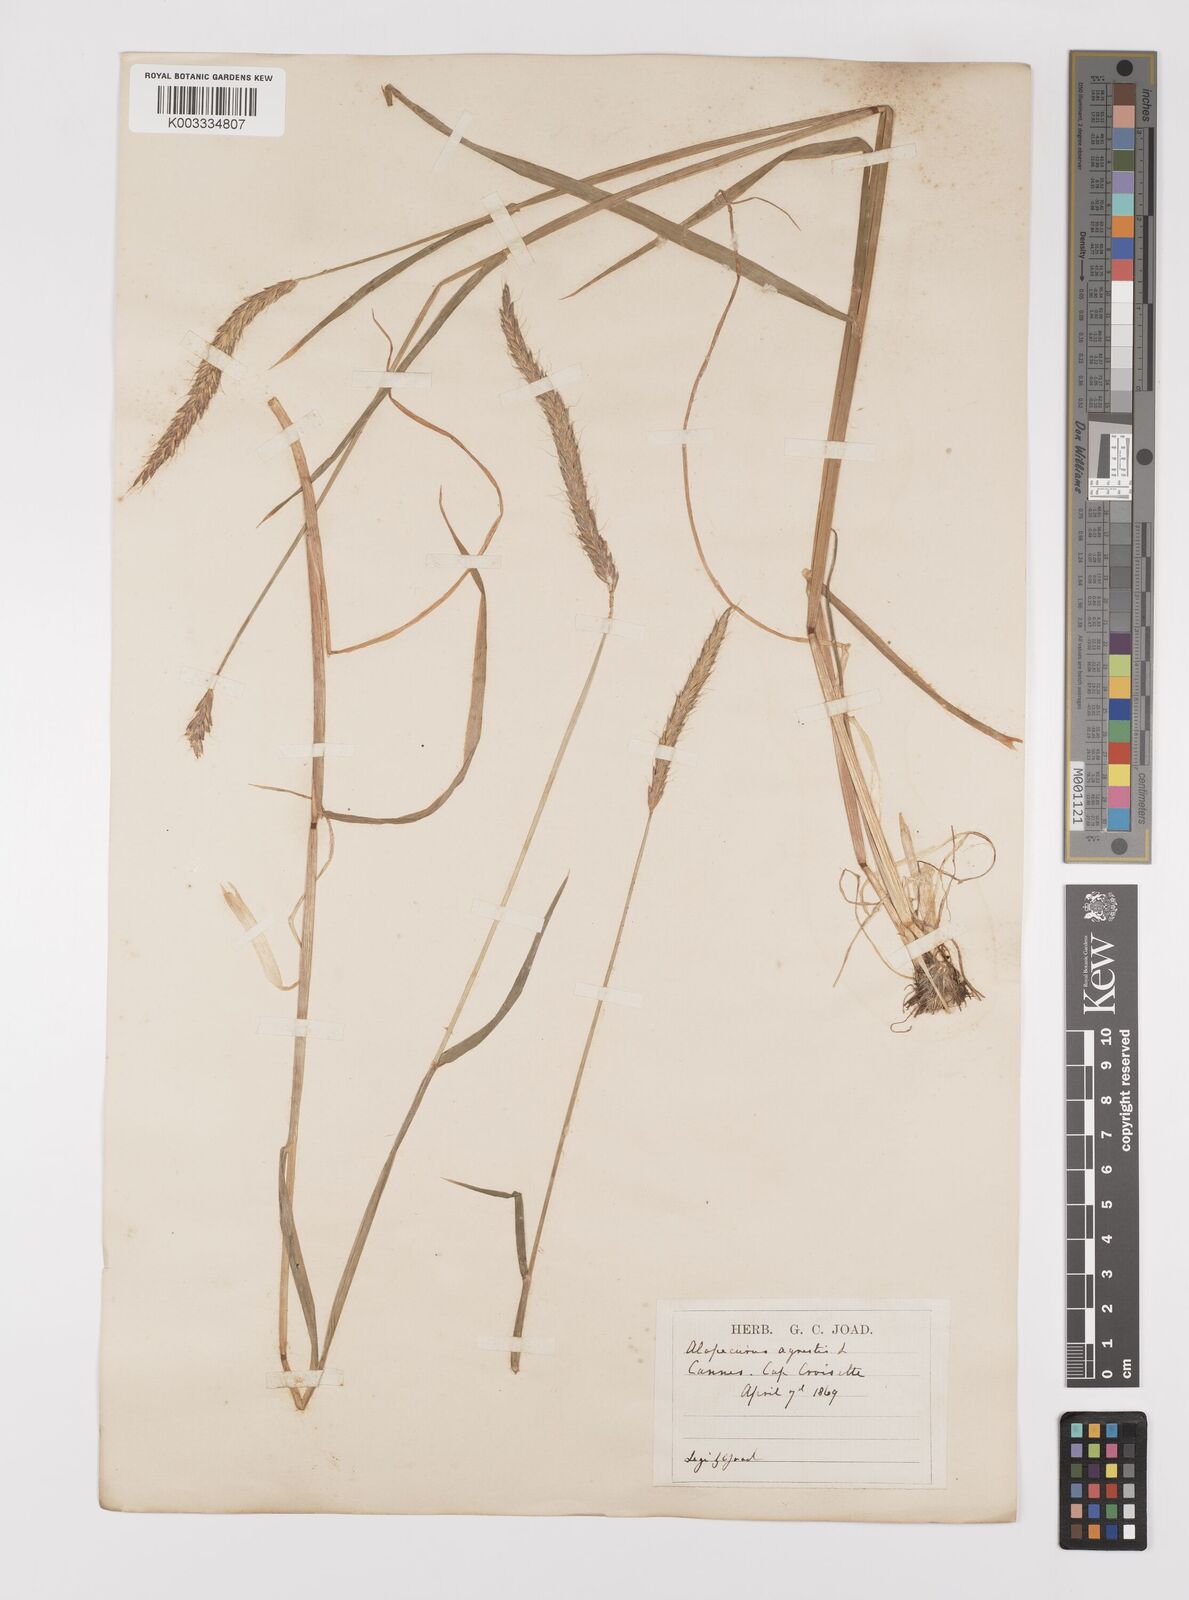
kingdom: Plantae
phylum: Tracheophyta
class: Liliopsida
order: Poales
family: Poaceae
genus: Alopecurus
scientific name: Alopecurus myosuroides
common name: Black-grass
